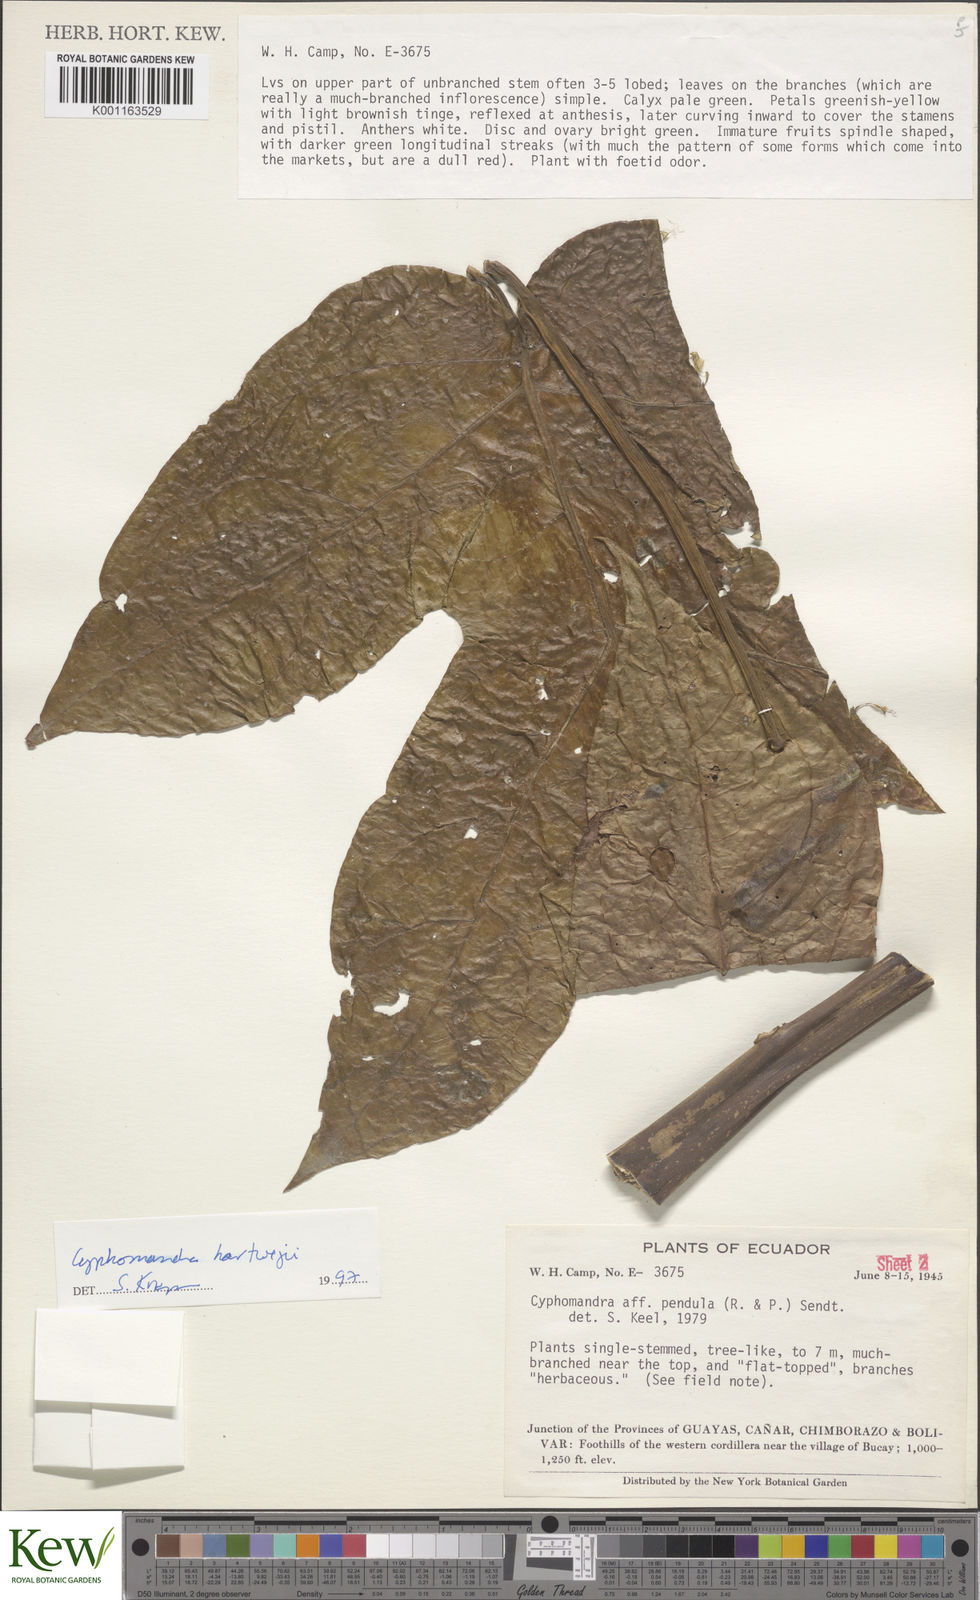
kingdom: Plantae
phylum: Tracheophyta
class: Magnoliopsida
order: Solanales
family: Solanaceae
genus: Solanum
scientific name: Solanum splendens
